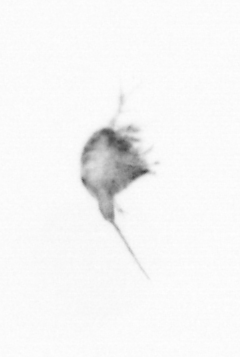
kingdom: Animalia
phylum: Arthropoda
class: Copepoda
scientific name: Copepoda
